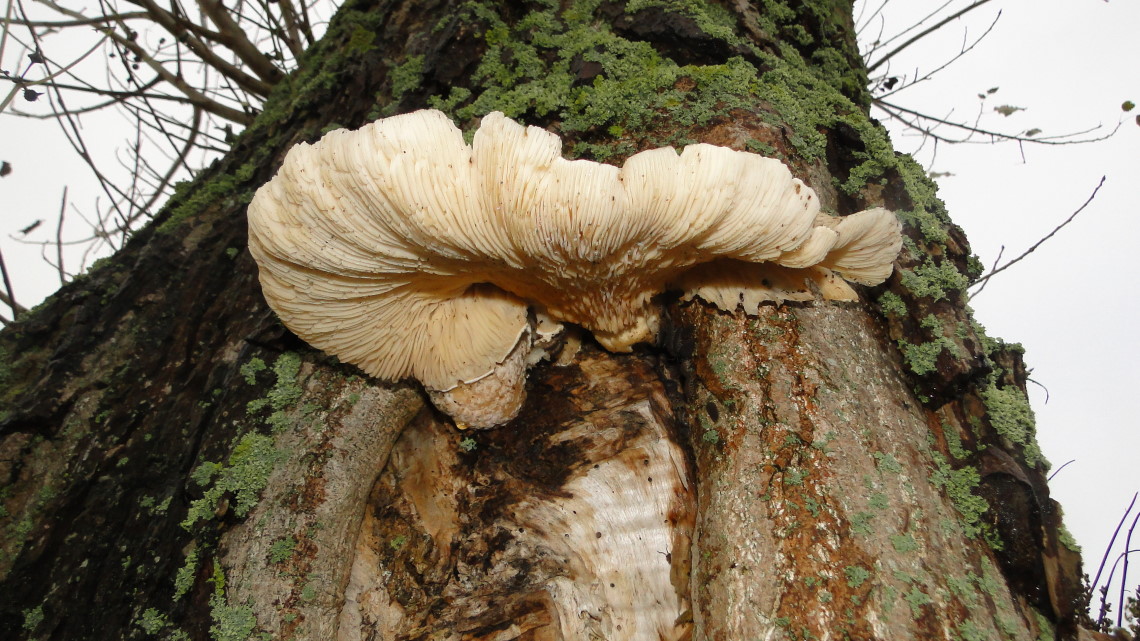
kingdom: Fungi
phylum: Basidiomycota
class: Agaricomycetes
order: Agaricales
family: Pleurotaceae
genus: Pleurotus
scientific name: Pleurotus dryinus
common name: korkagtig østershat
